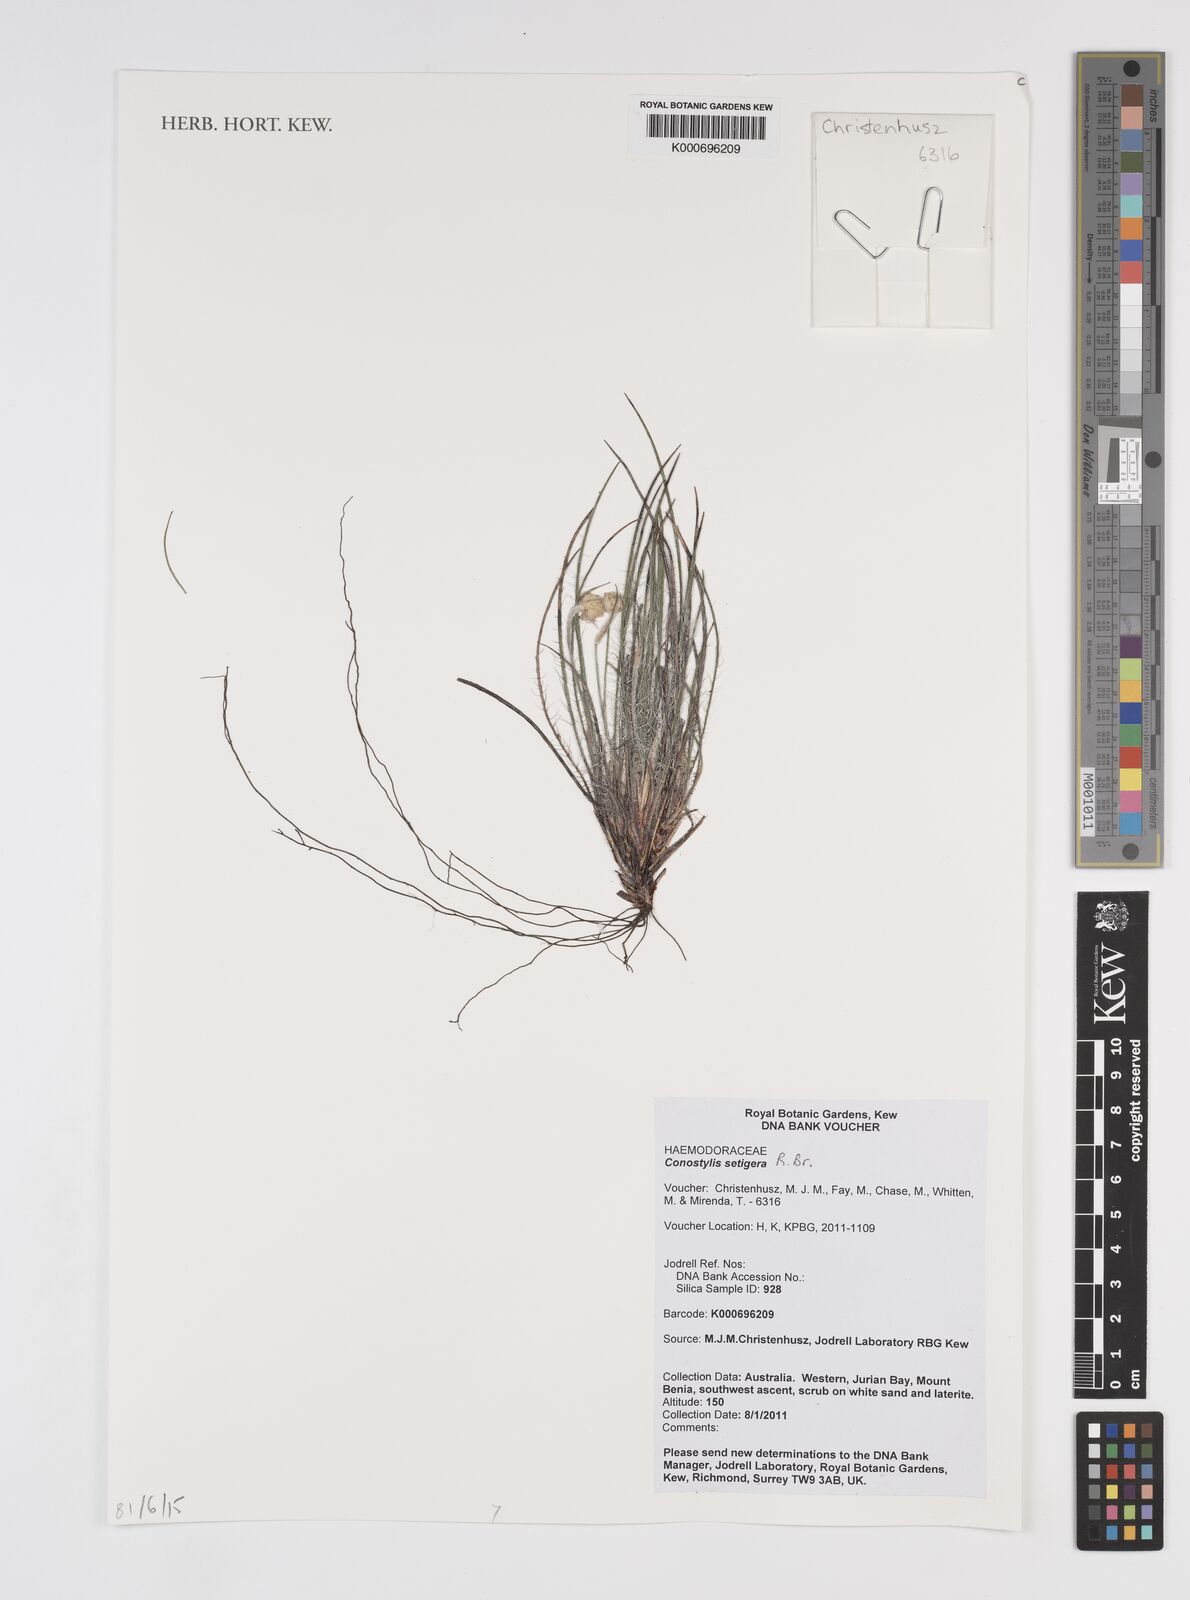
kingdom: Plantae
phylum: Tracheophyta
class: Liliopsida
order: Commelinales
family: Haemodoraceae
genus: Conostylis
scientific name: Conostylis setigera
